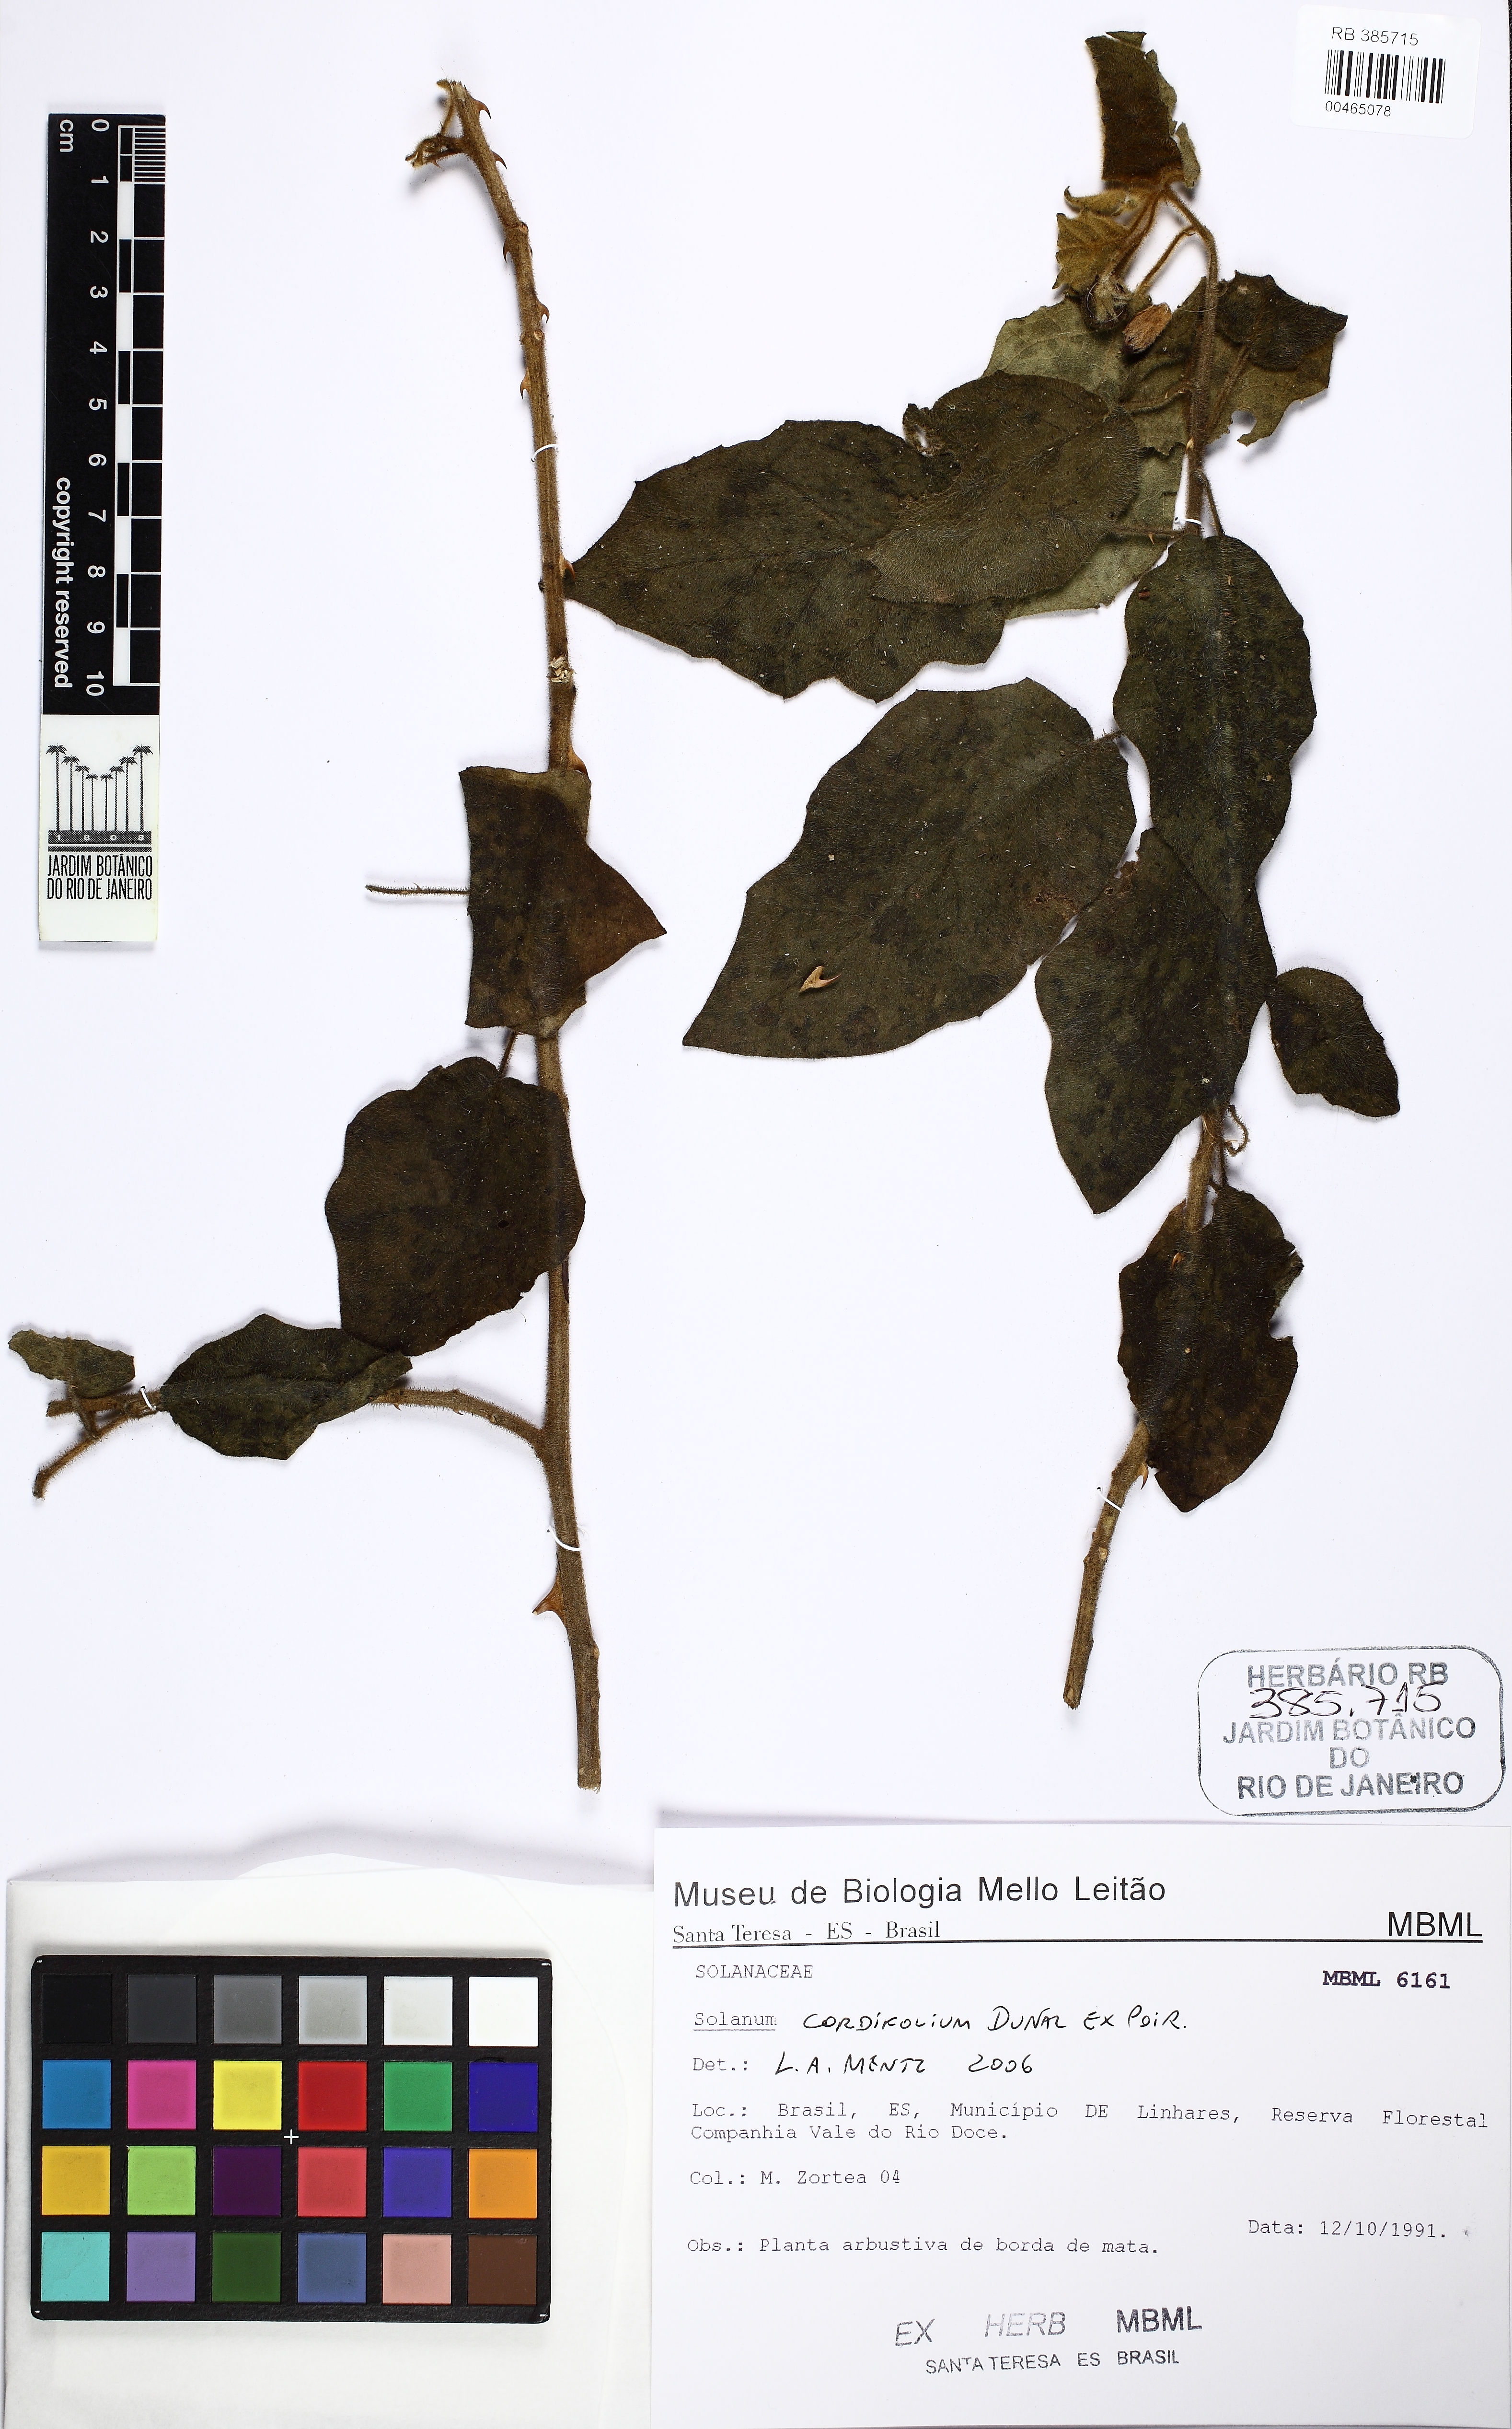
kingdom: Plantae
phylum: Tracheophyta
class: Magnoliopsida
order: Solanales
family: Solanaceae
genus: Solanum
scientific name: Solanum cordifolium
